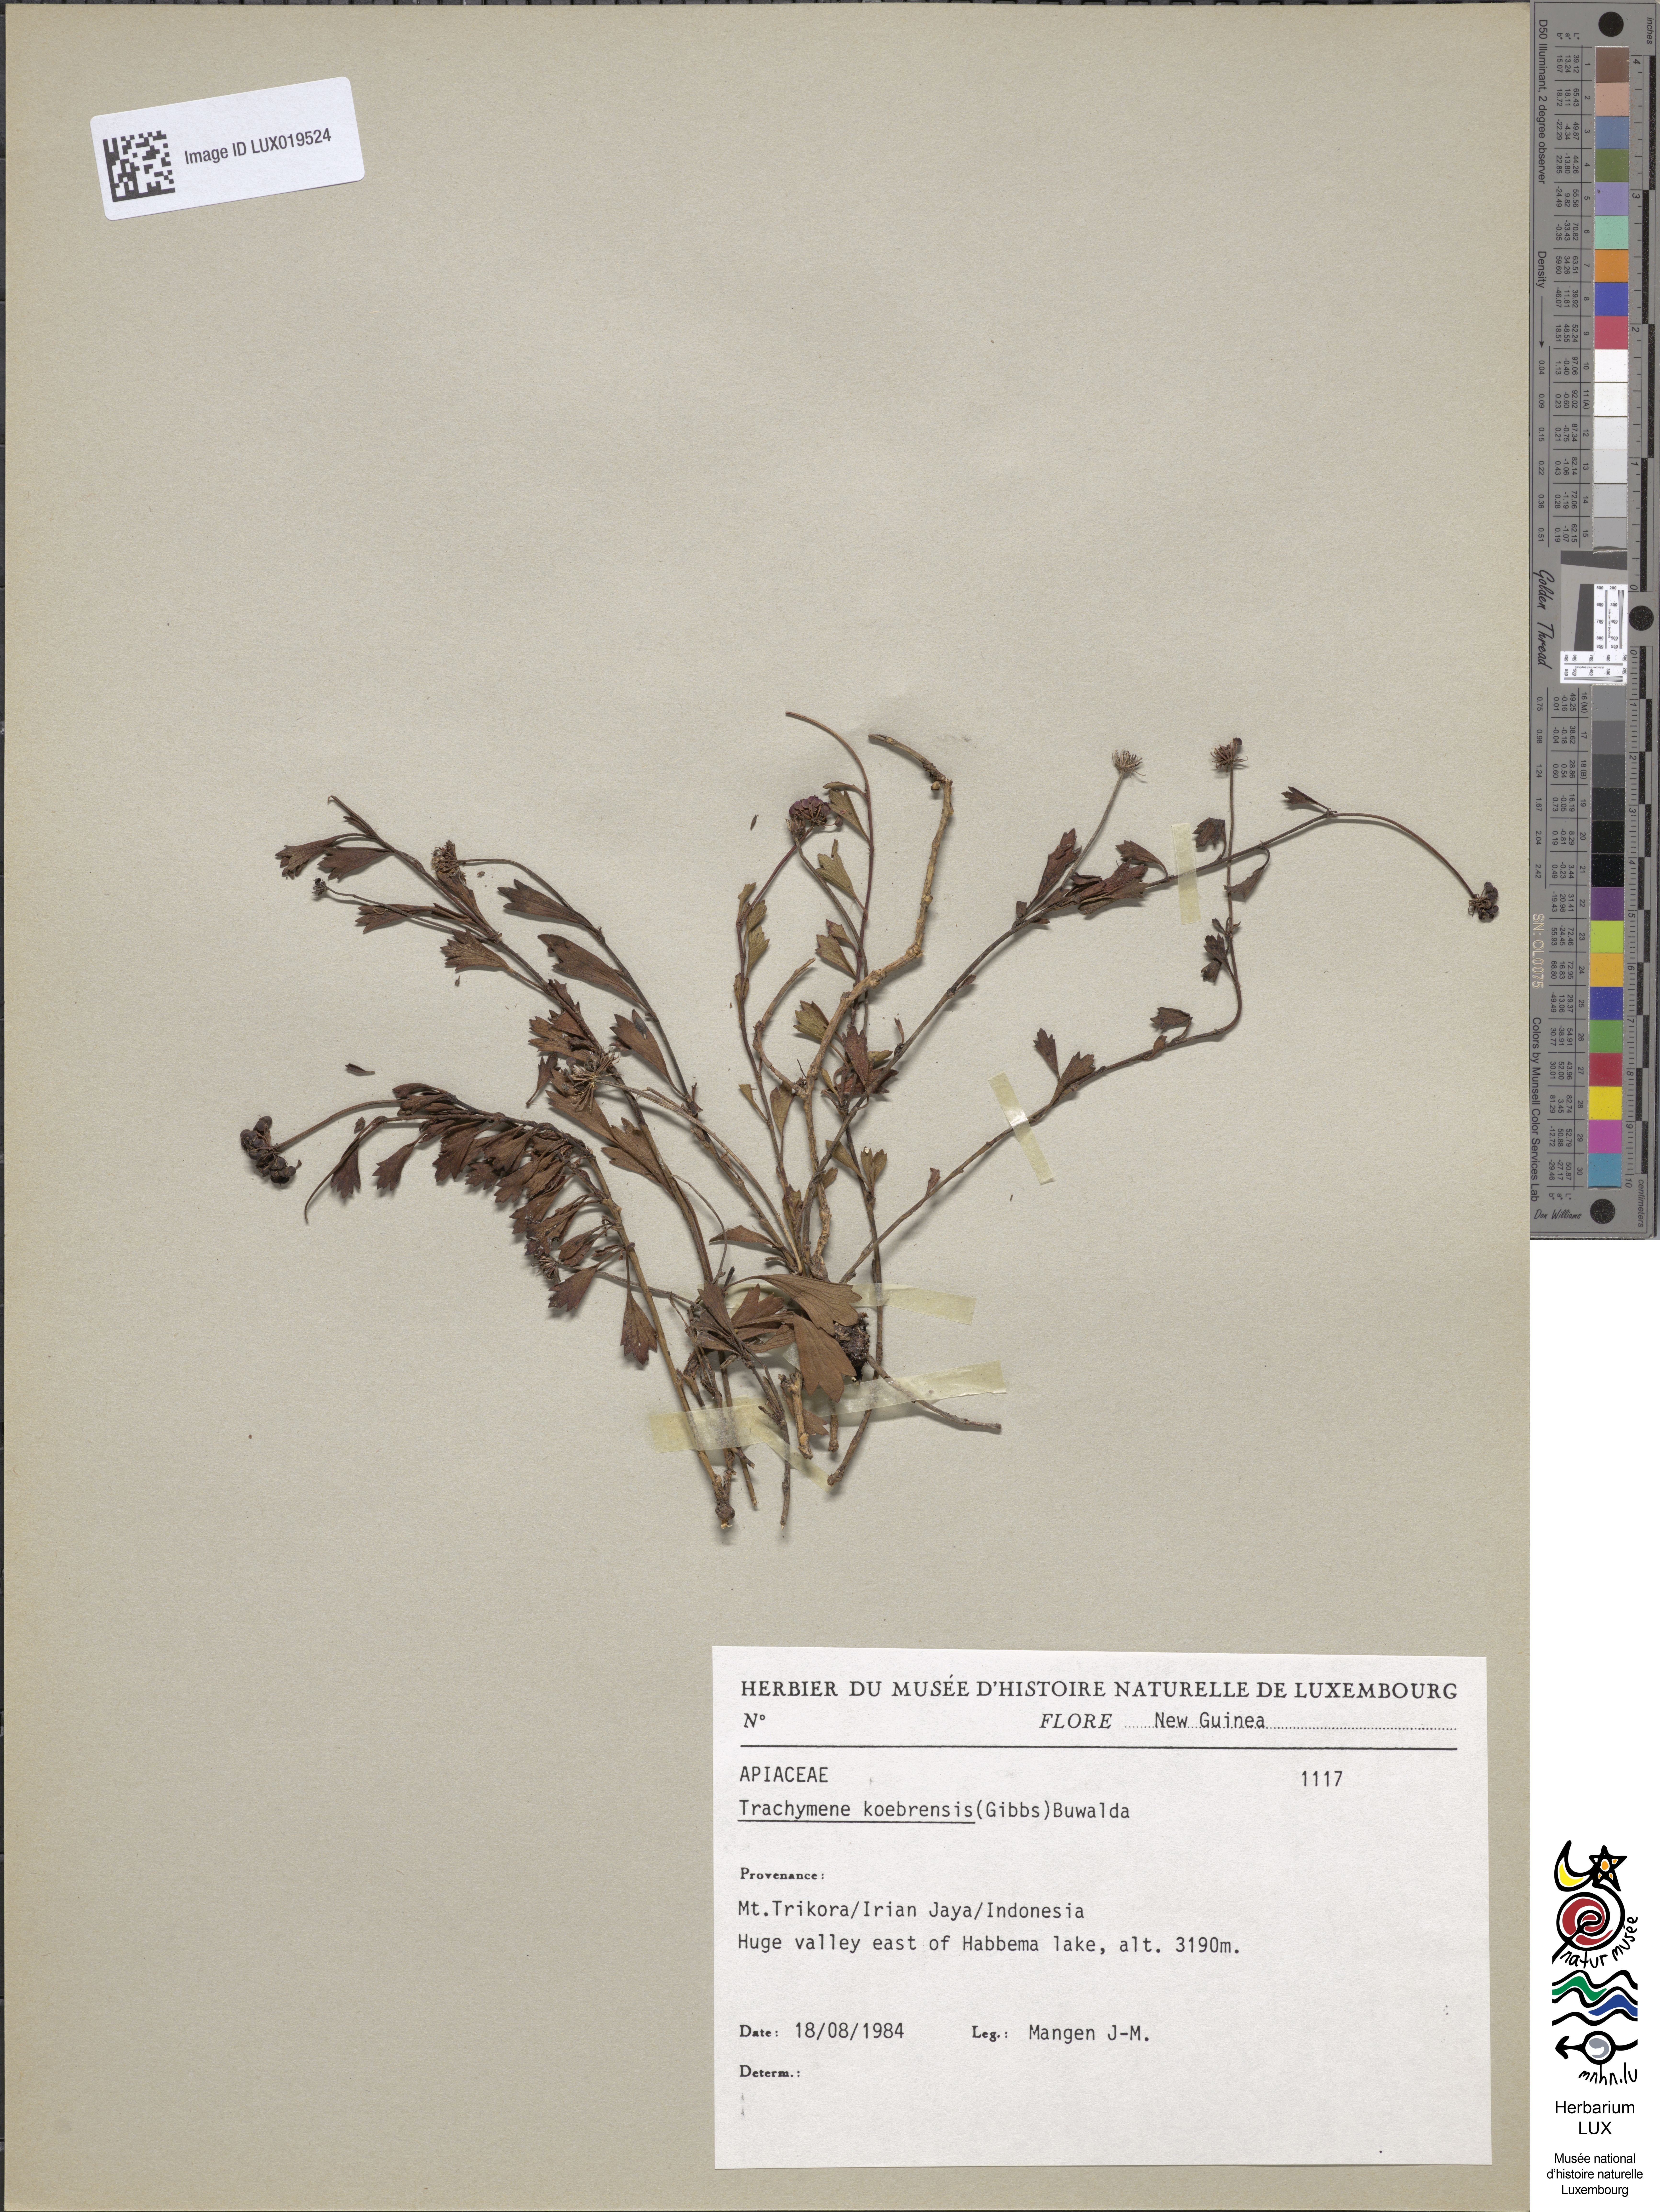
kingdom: Plantae
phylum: Tracheophyta
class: Magnoliopsida
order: Apiales
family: Araliaceae
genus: Trachymene
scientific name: Trachymene koebrensis
